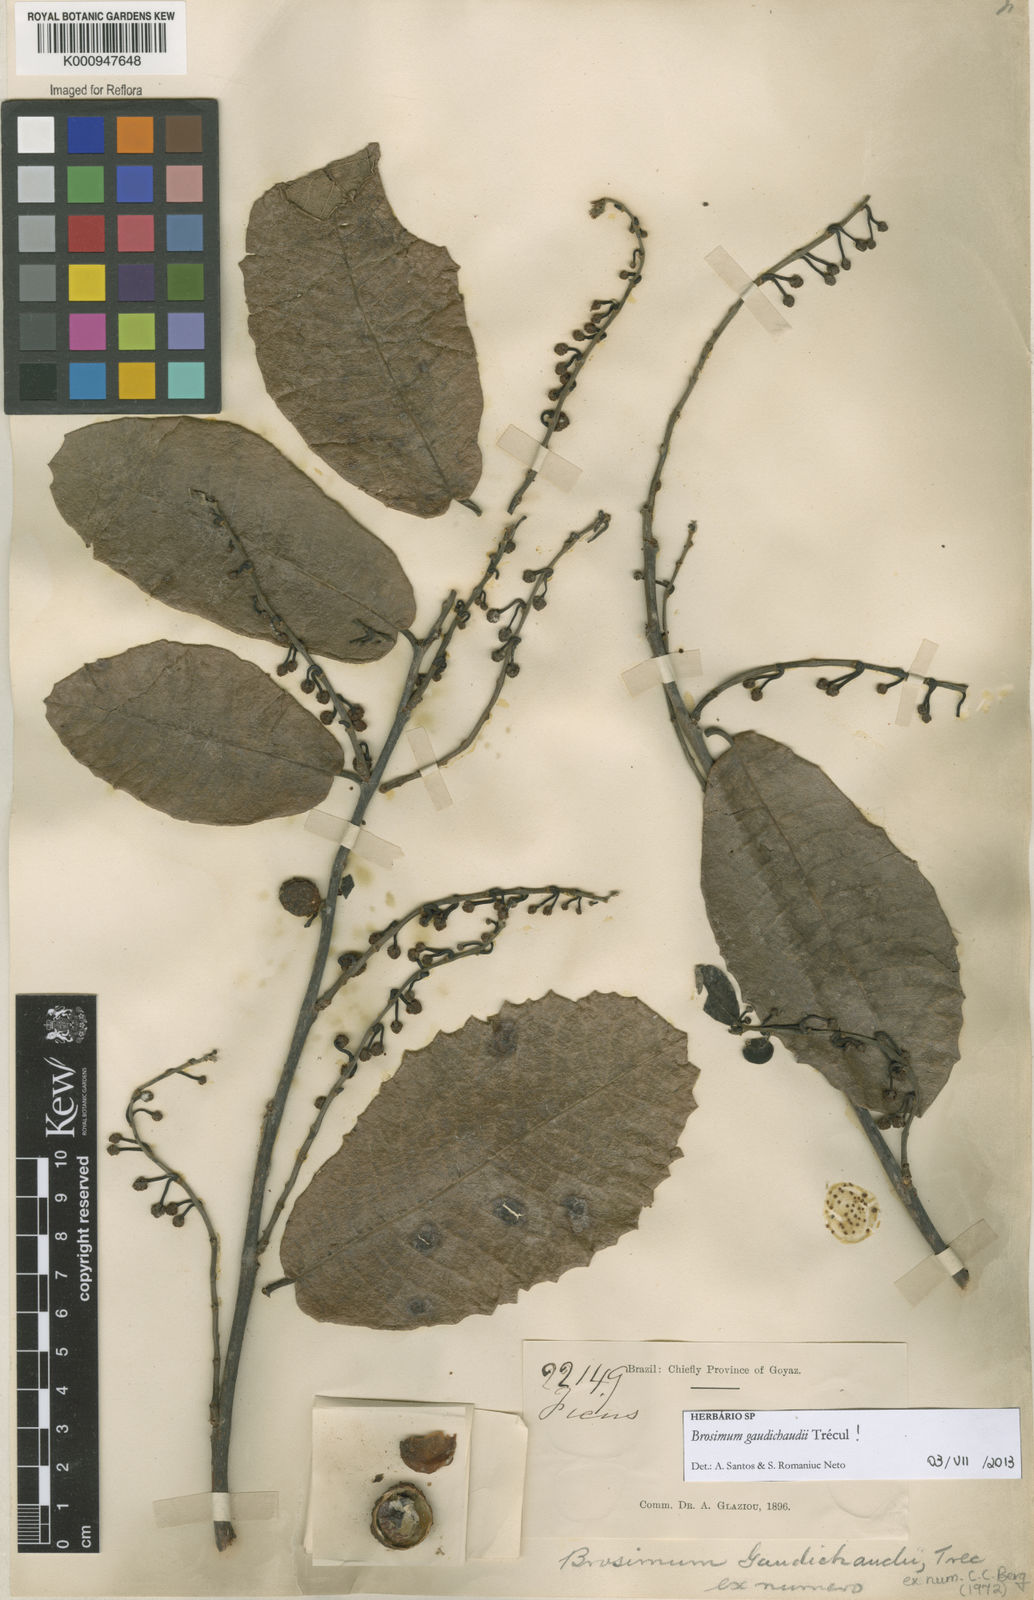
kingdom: Plantae
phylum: Tracheophyta
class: Magnoliopsida
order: Rosales
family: Moraceae
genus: Brosimum
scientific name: Brosimum
